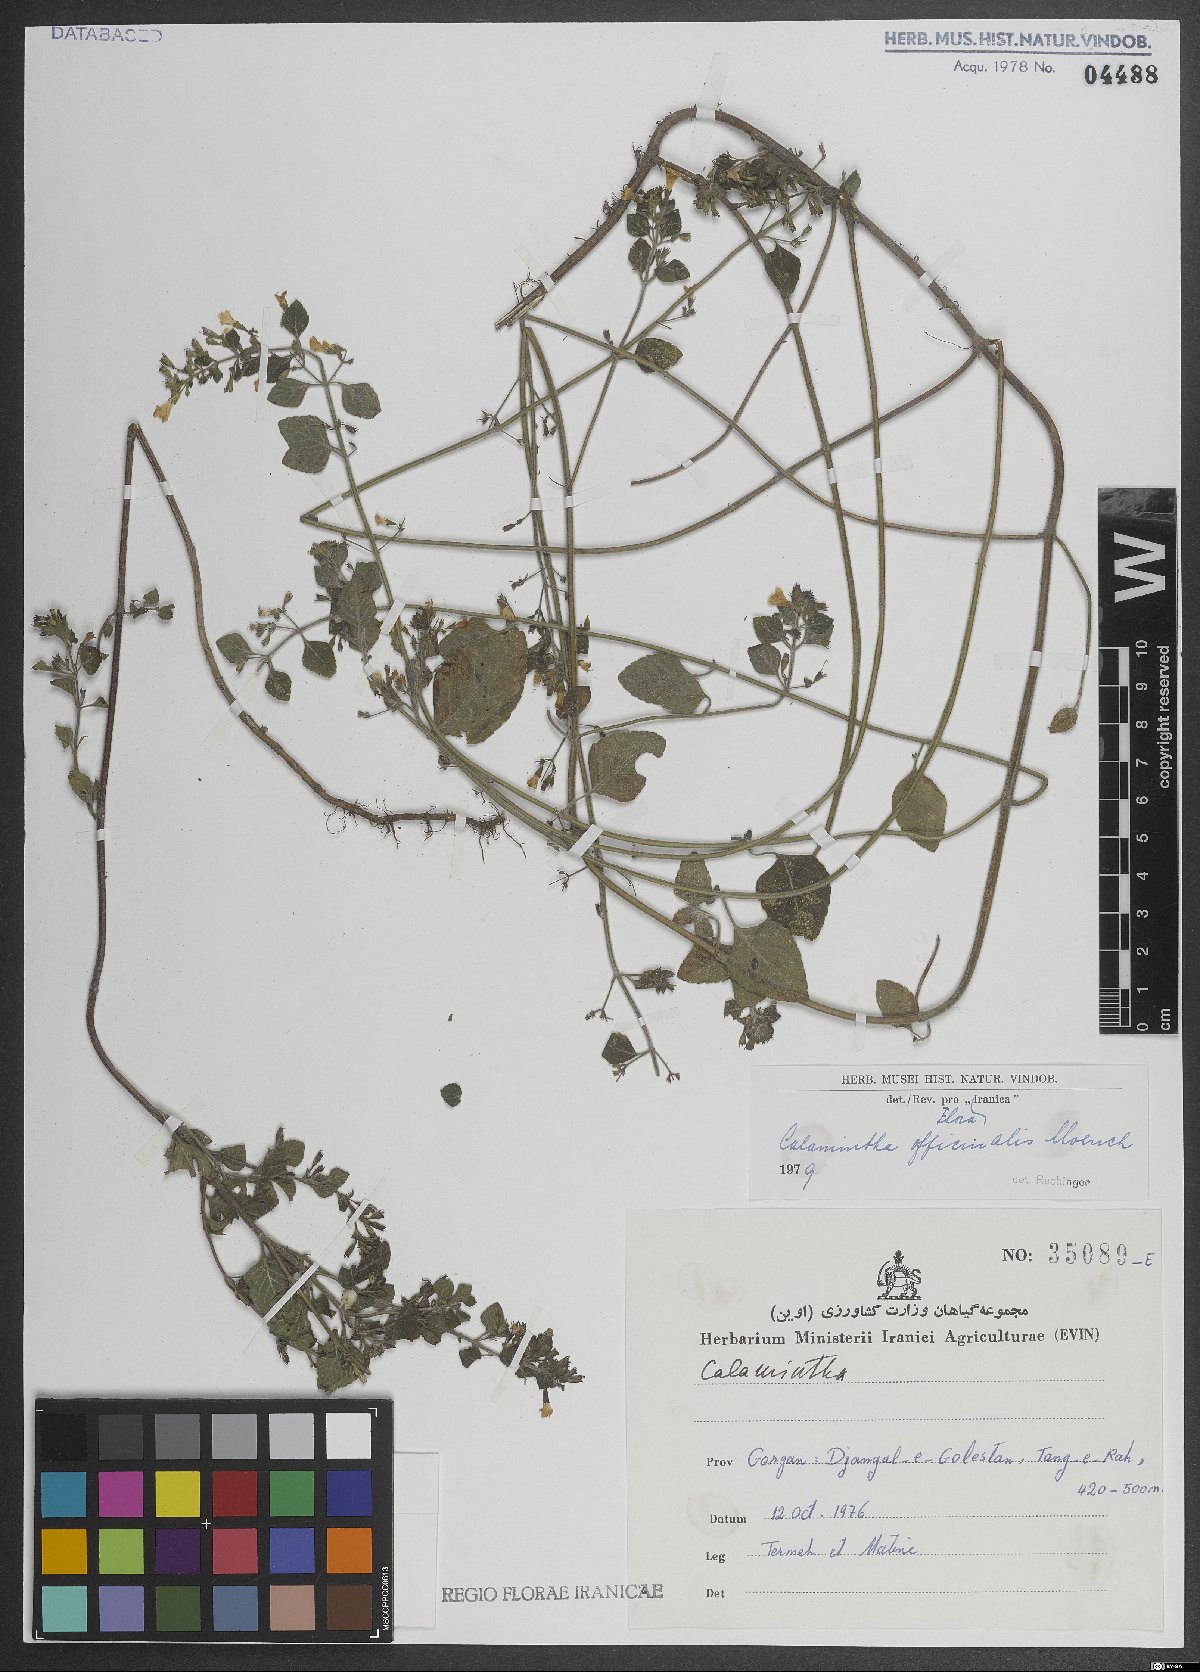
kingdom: Plantae
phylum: Tracheophyta
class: Magnoliopsida
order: Lamiales
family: Lamiaceae
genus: Clinopodium
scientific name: Clinopodium nepeta
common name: Lesser calamint
